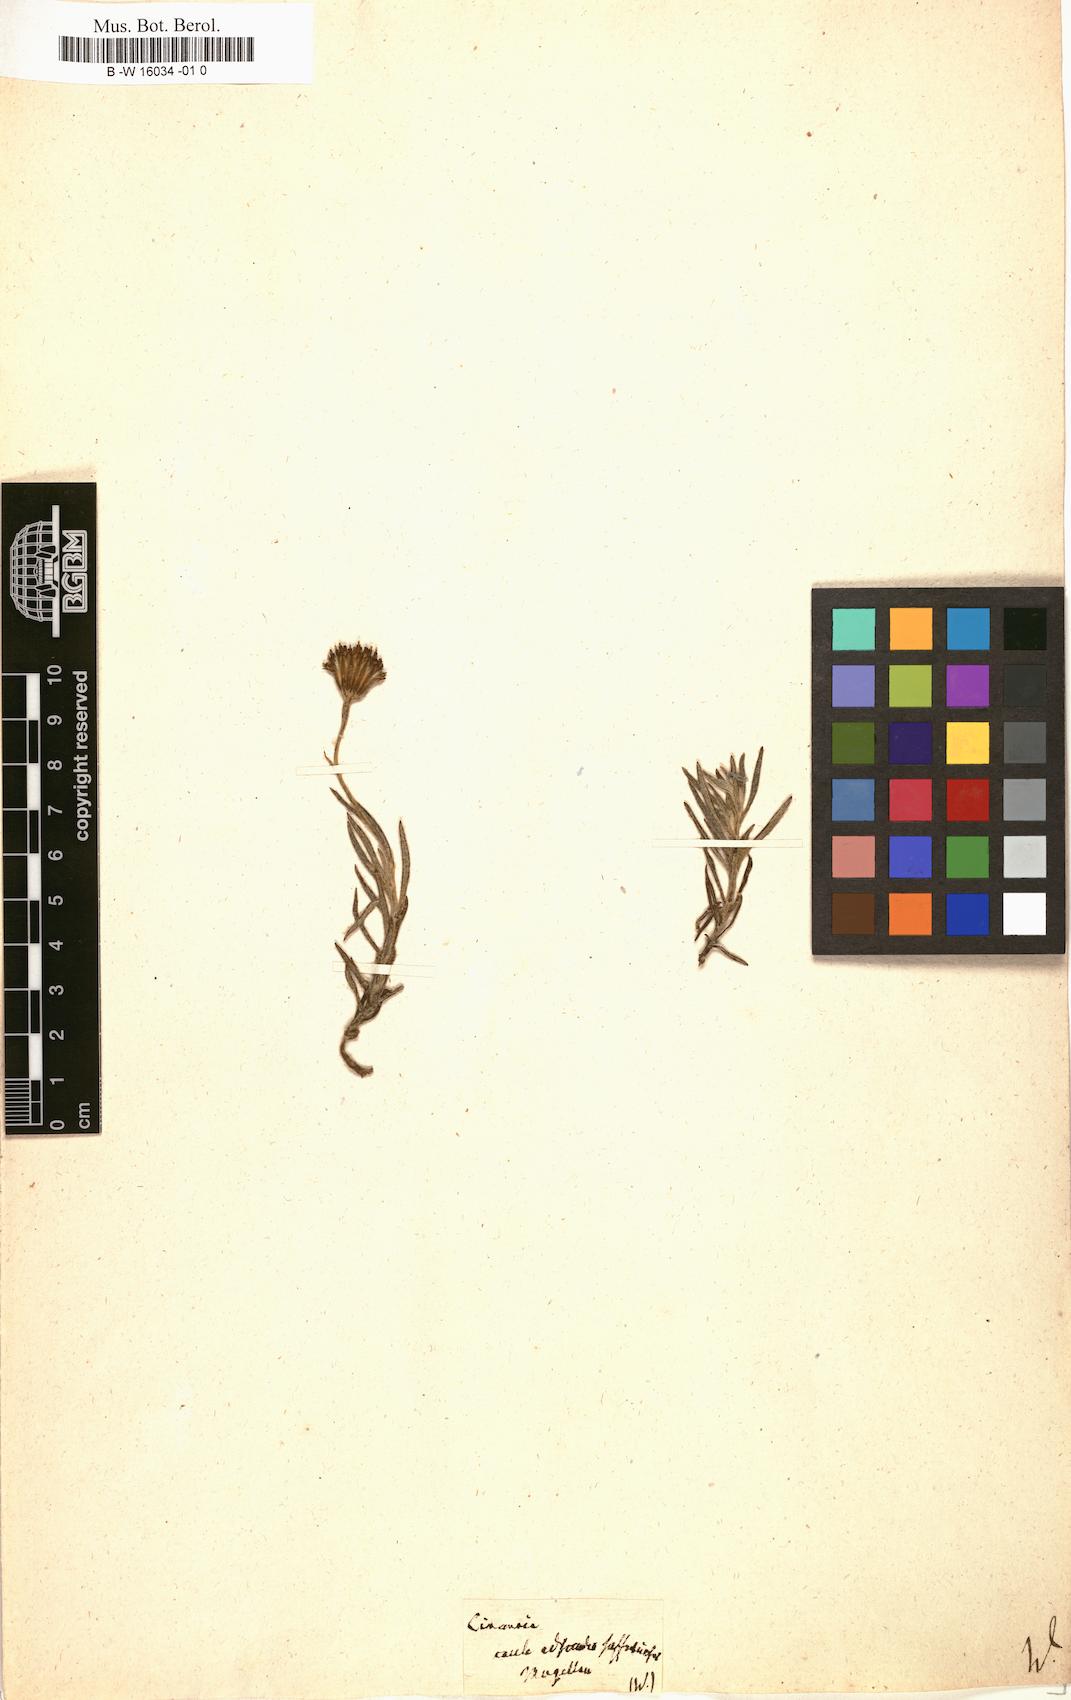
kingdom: Plantae
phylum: Tracheophyta
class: Magnoliopsida
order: Asterales
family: Asteraceae
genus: Cineraria
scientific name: Cineraria
